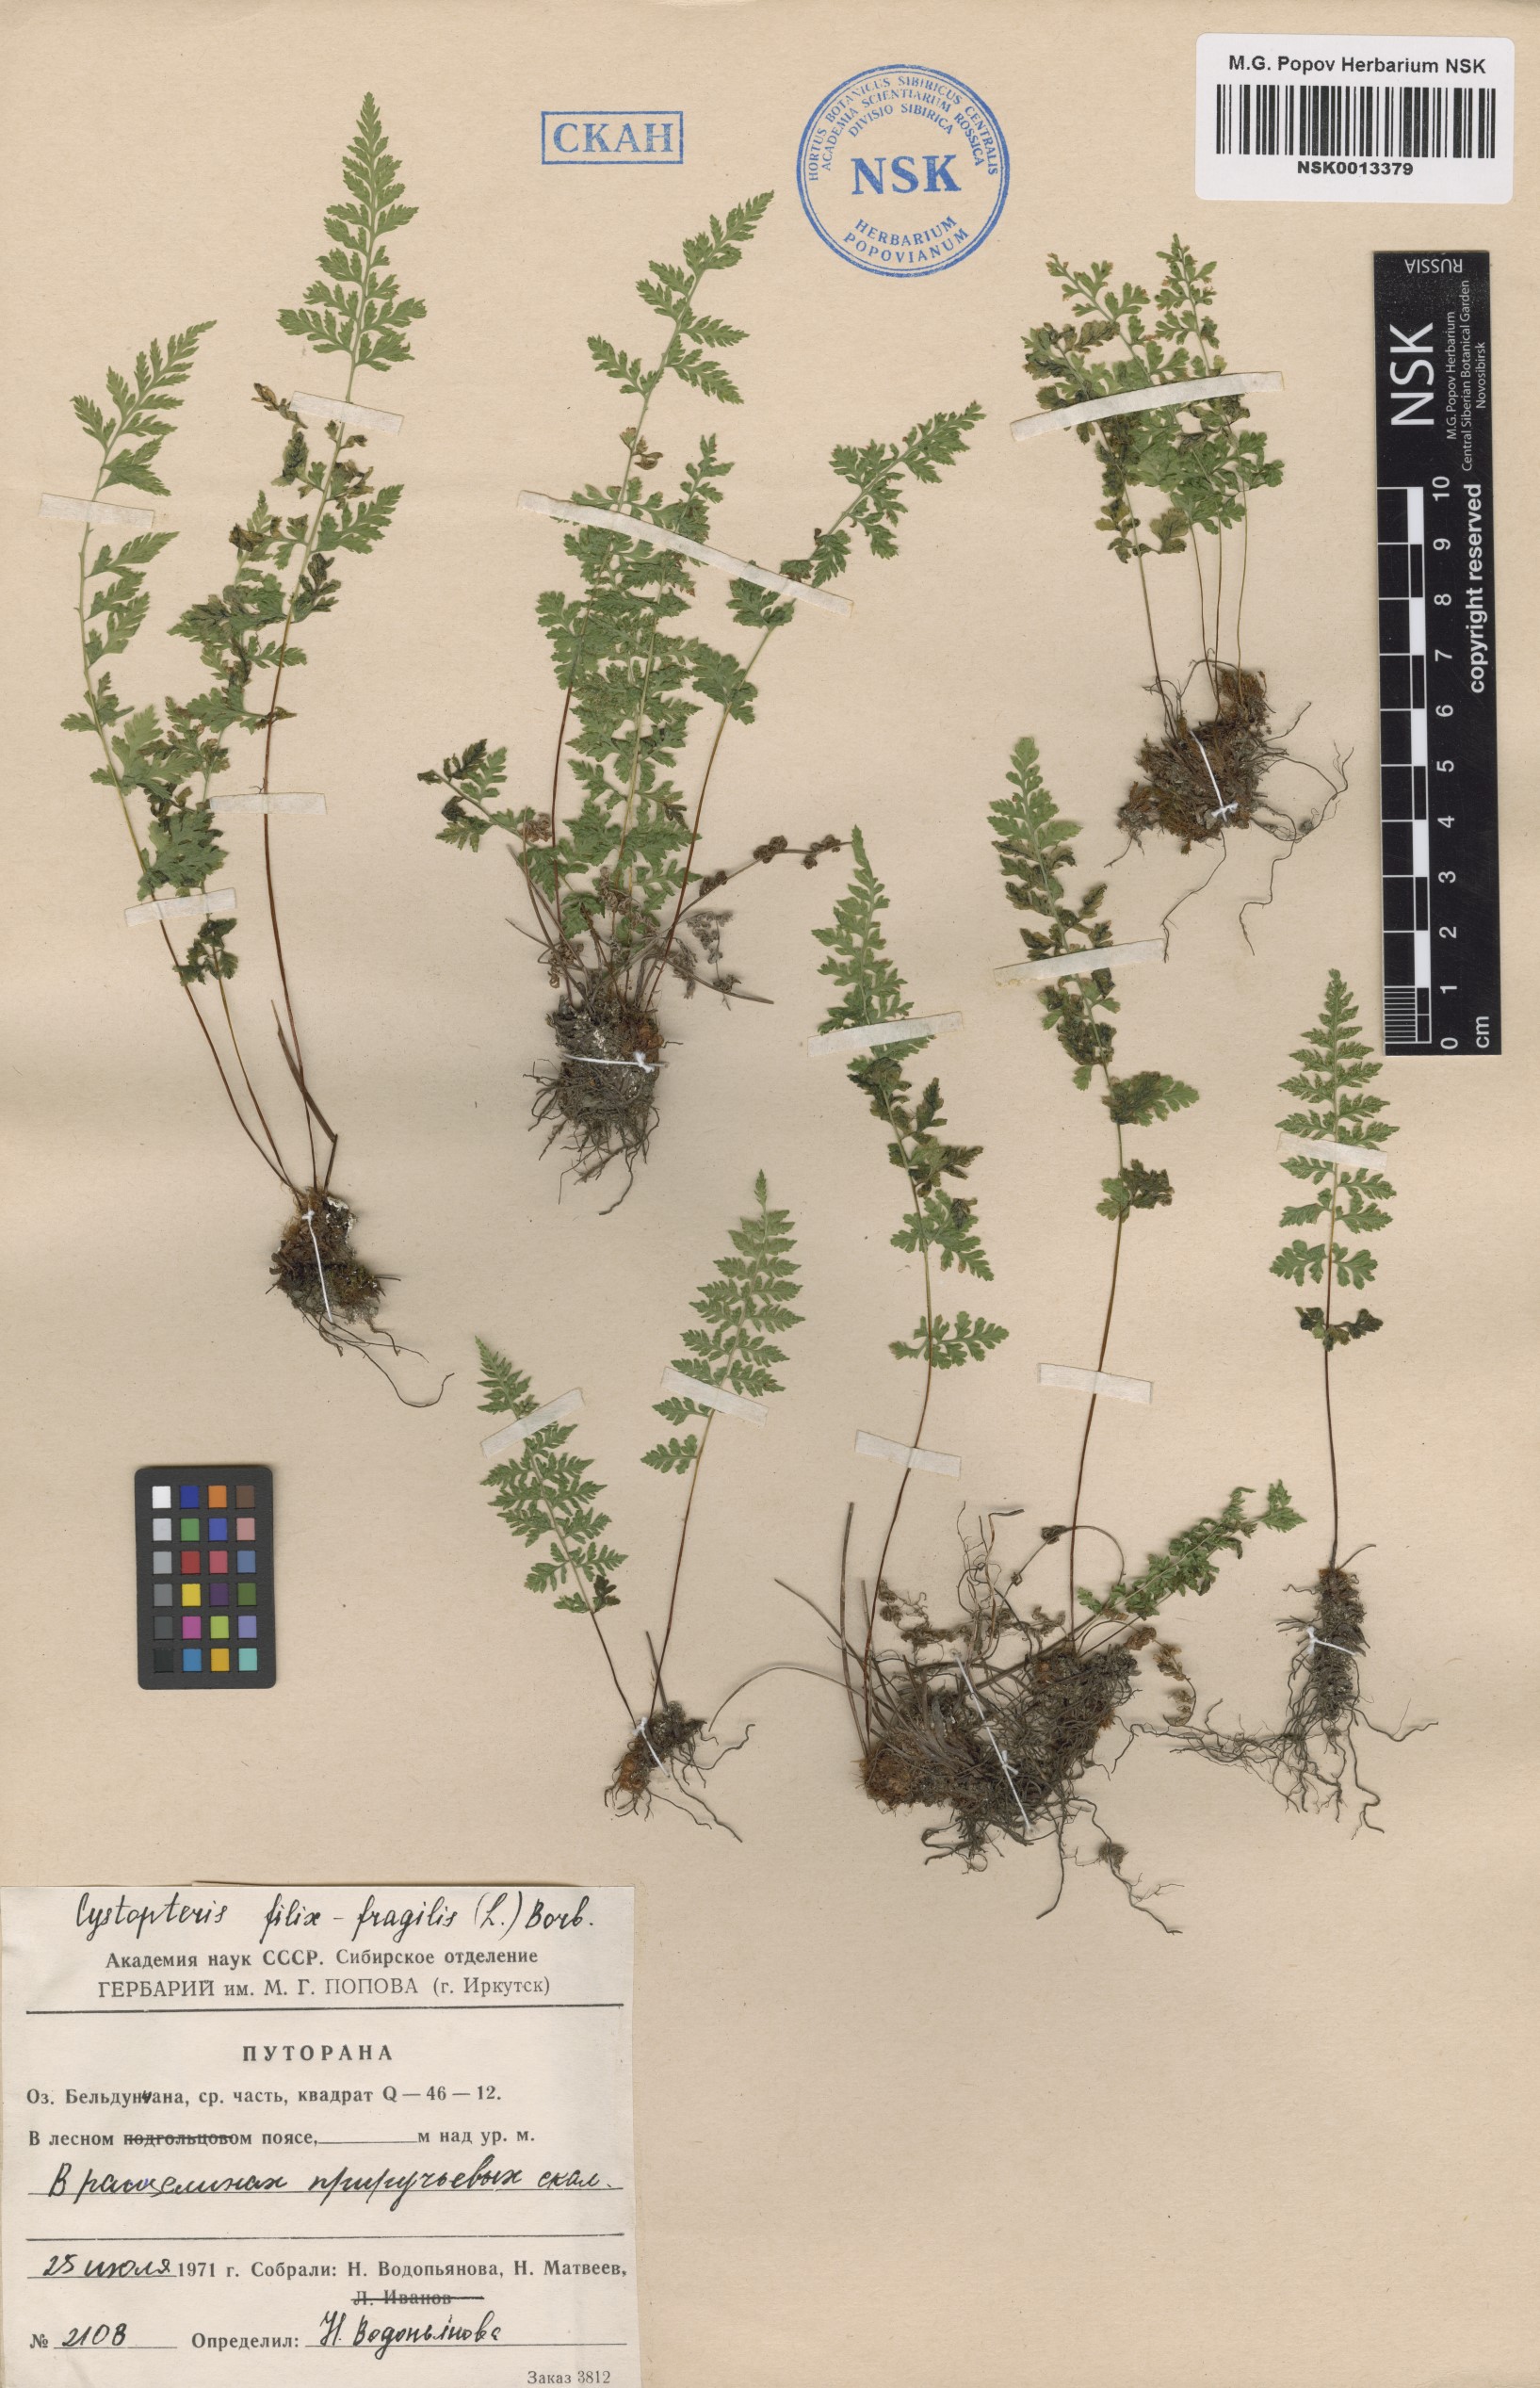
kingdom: Plantae
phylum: Tracheophyta
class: Polypodiopsida
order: Polypodiales
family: Cystopteridaceae
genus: Cystopteris
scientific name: Cystopteris fragilis
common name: Brittle bladder fern
